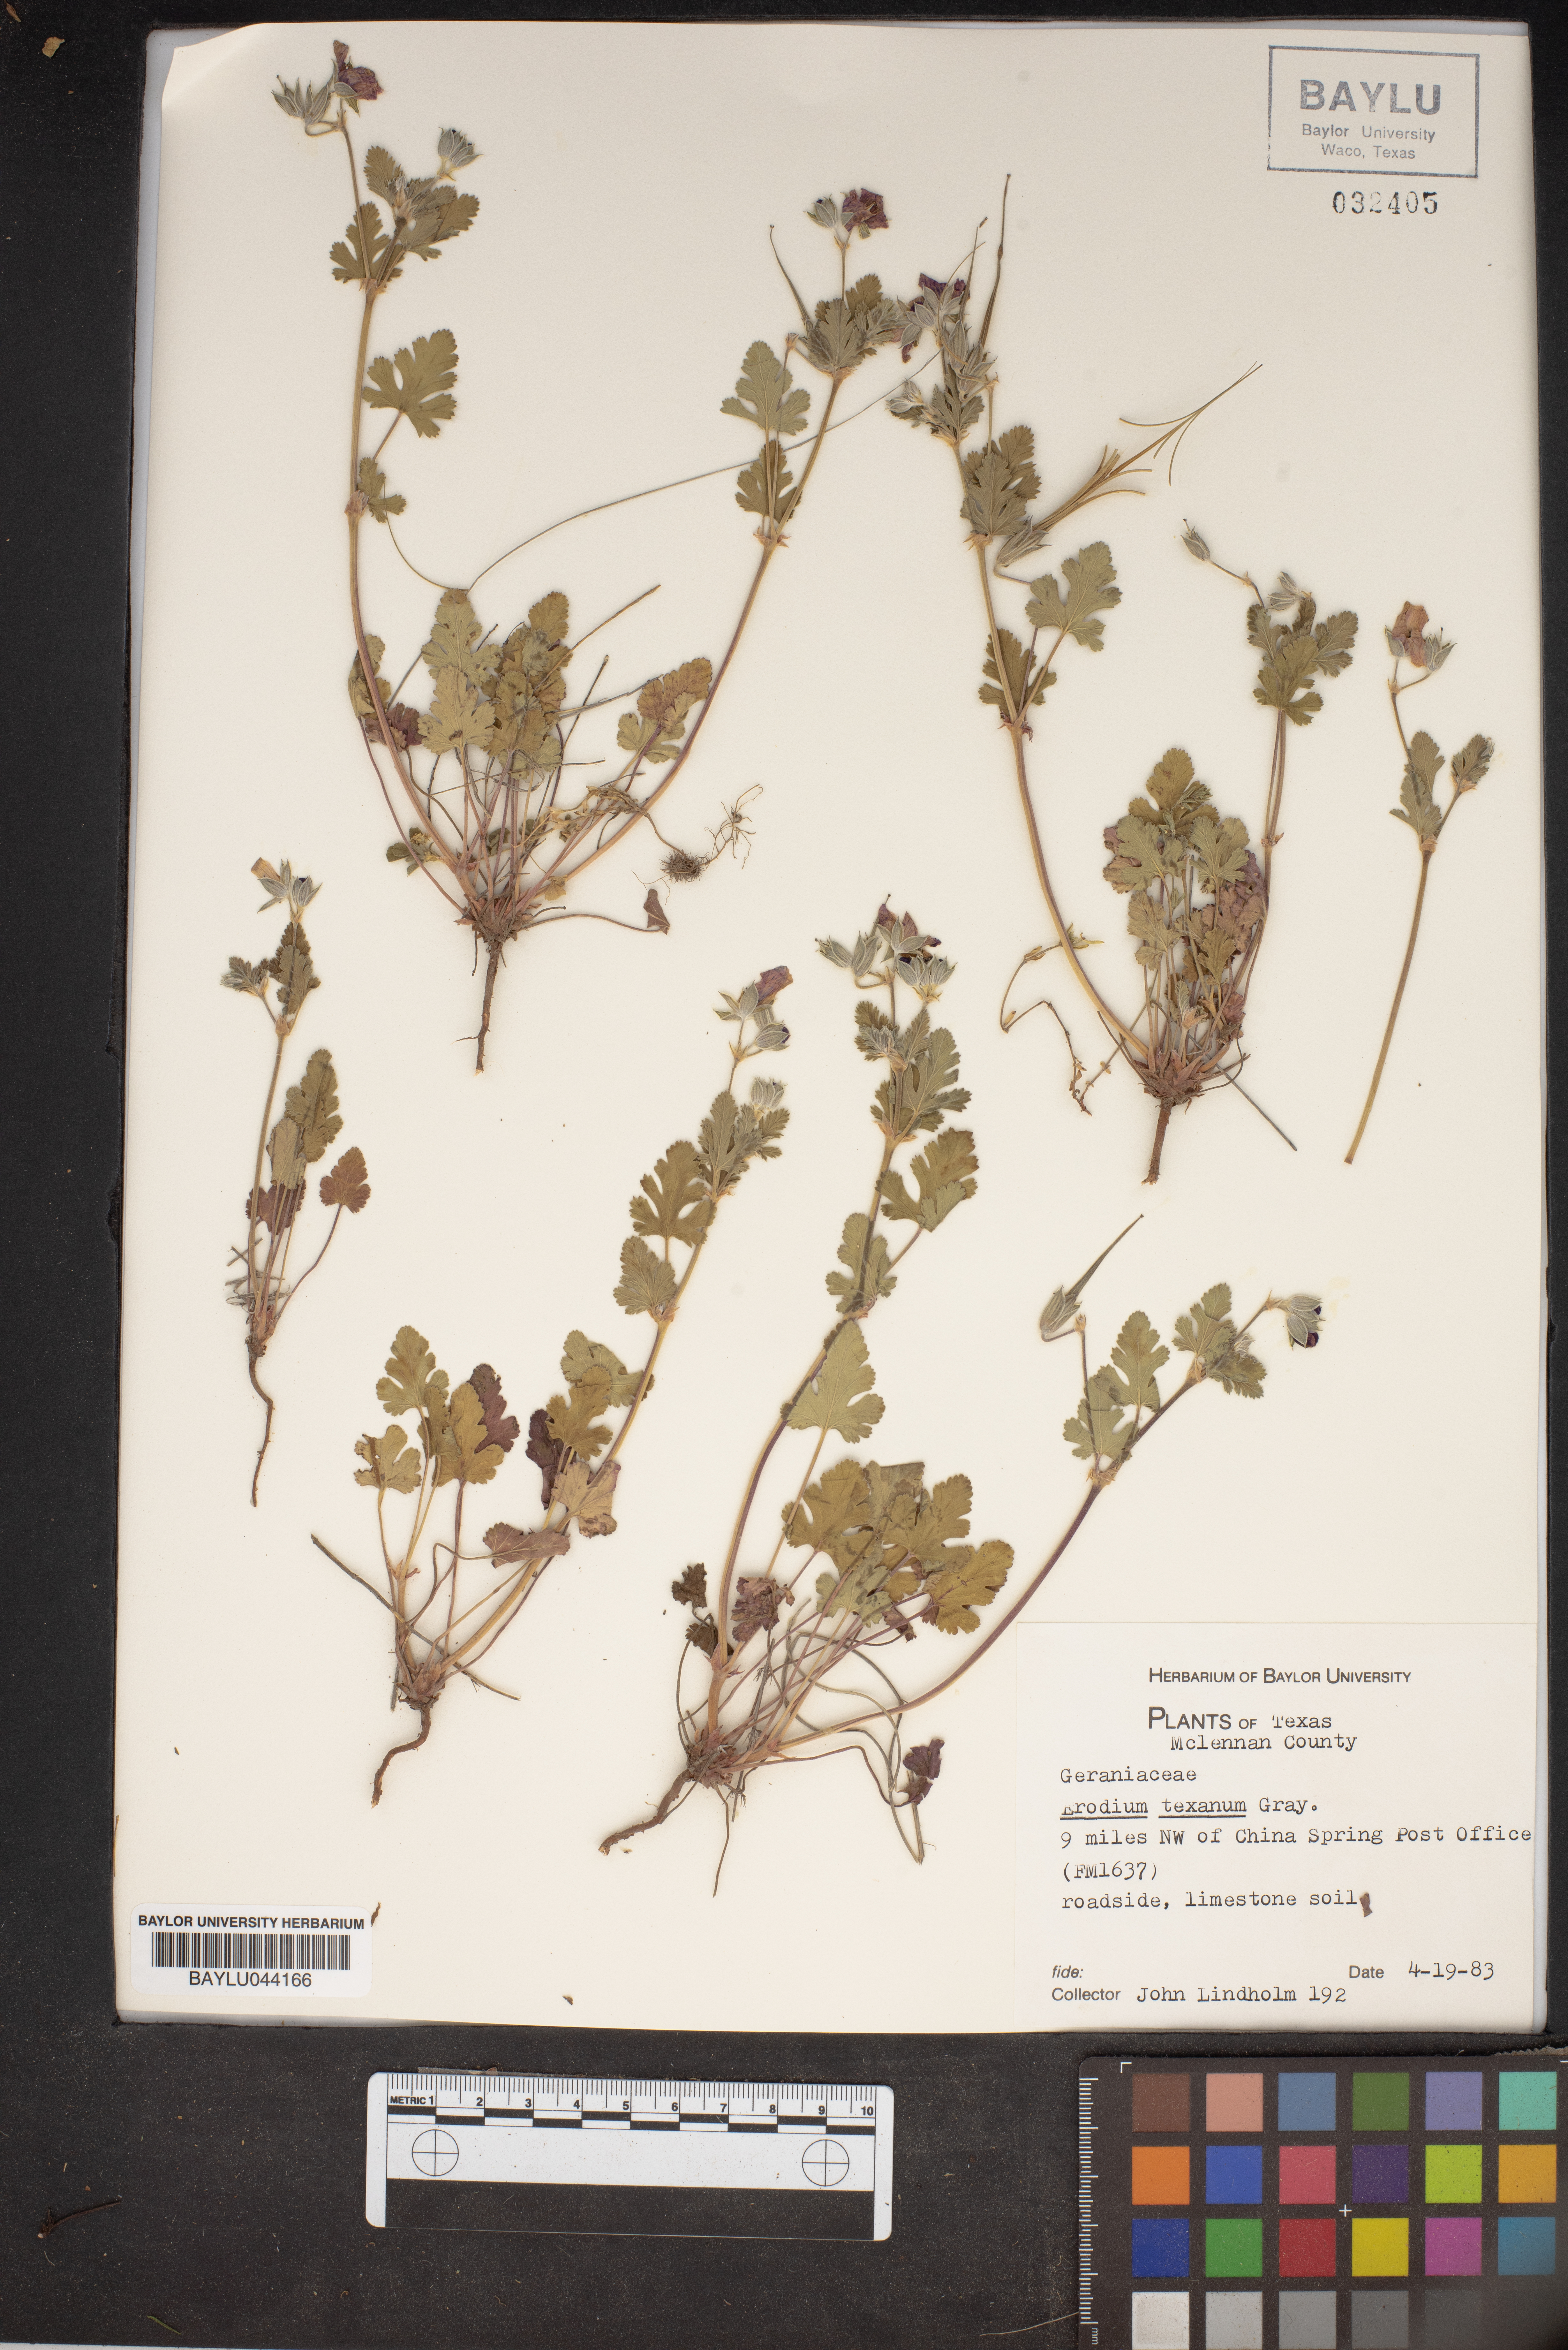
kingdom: Plantae
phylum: Tracheophyta
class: Magnoliopsida
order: Geraniales
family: Geraniaceae
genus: Erodium
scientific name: Erodium texanum
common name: Texas stork's-bill
